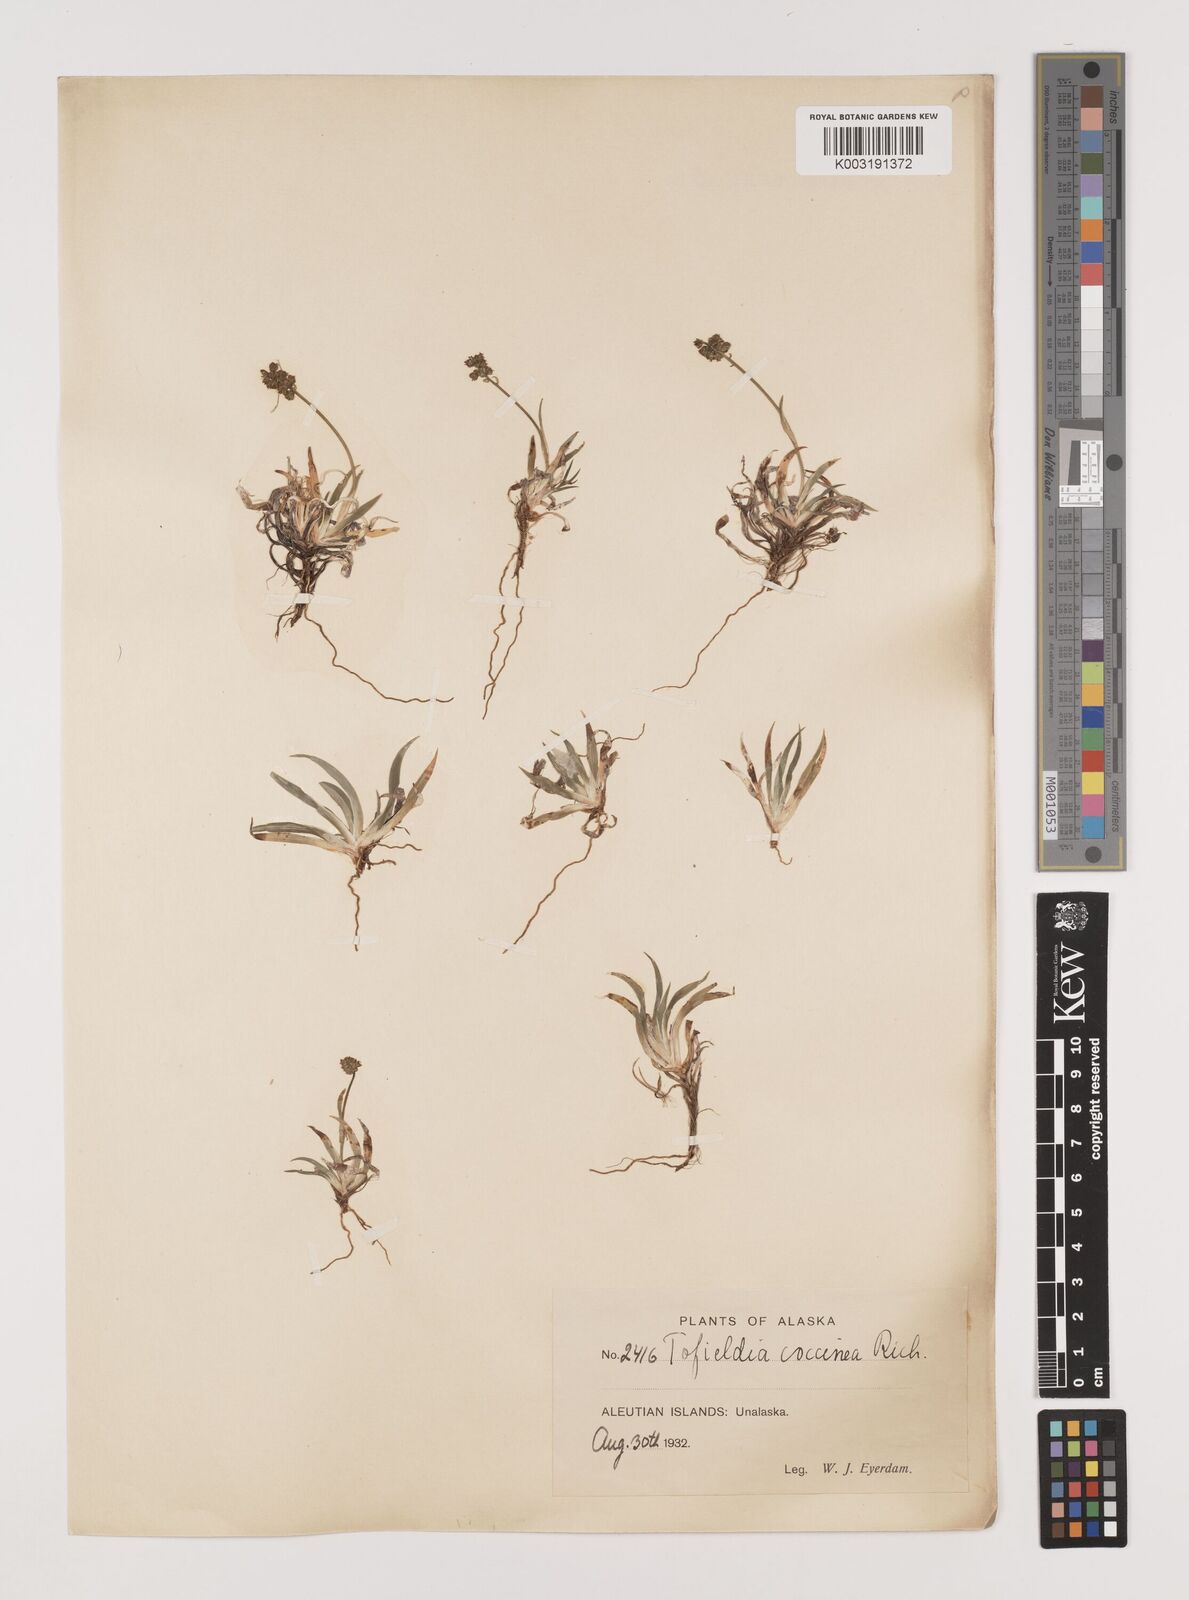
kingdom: Plantae
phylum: Tracheophyta
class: Liliopsida
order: Alismatales
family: Tofieldiaceae
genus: Tofieldia
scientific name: Tofieldia coccinea
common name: Northern false asphodel
